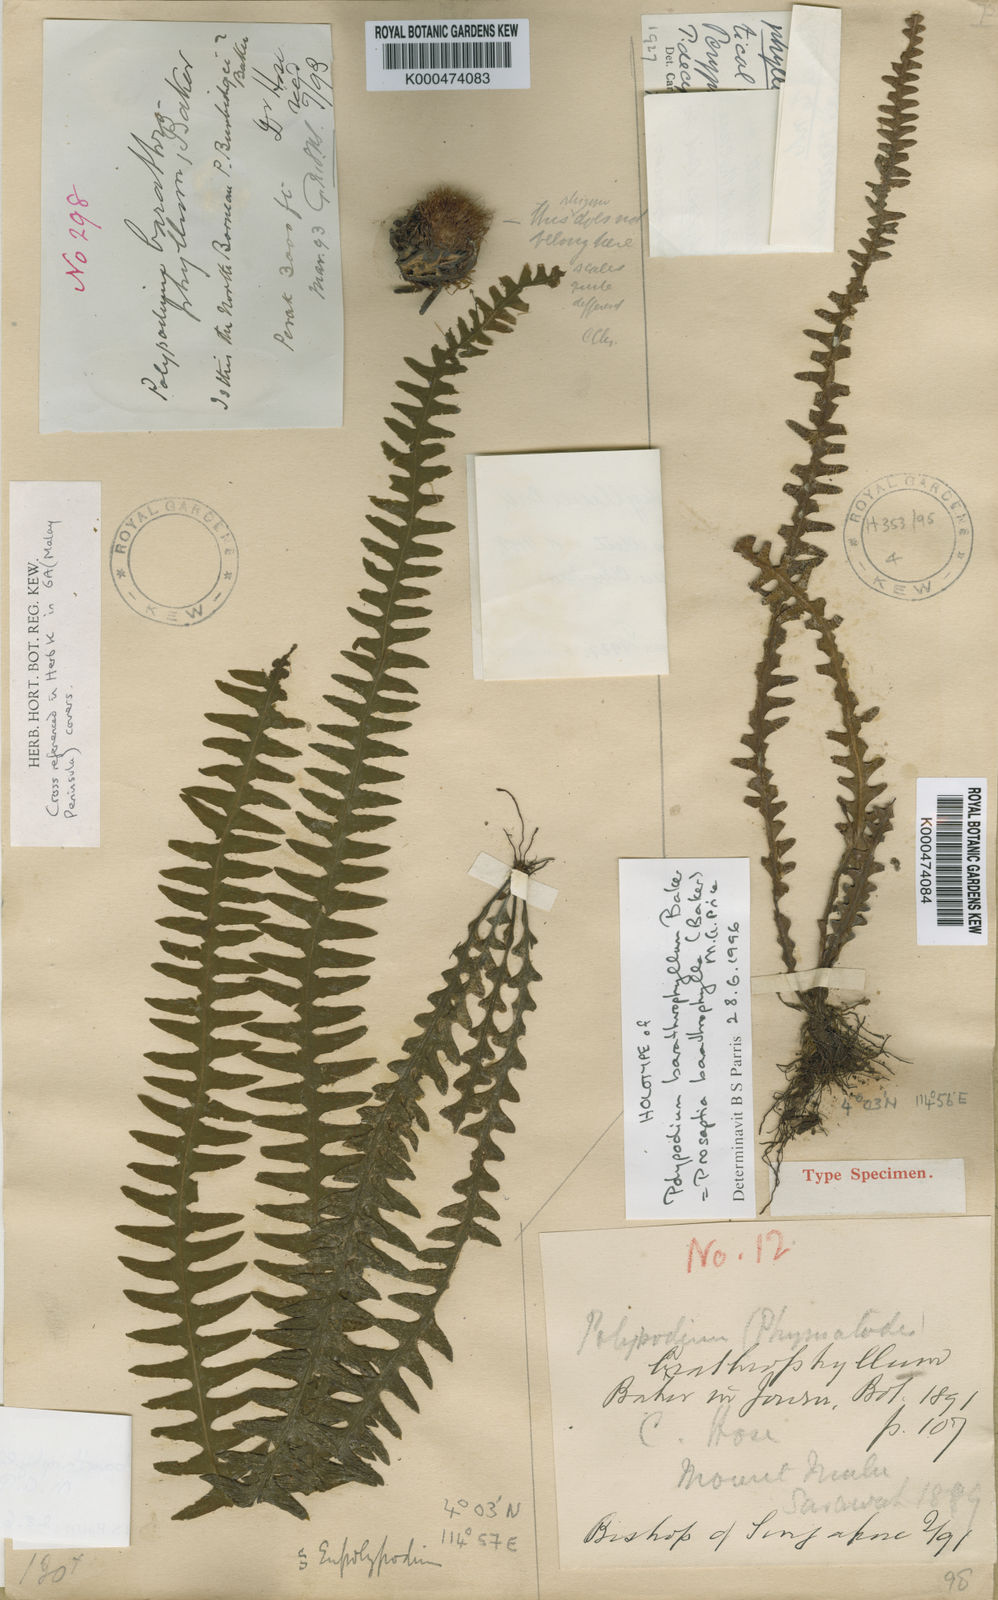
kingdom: Plantae
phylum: Tracheophyta
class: Polypodiopsida
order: Polypodiales
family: Polypodiaceae
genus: Prosaptia
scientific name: Prosaptia barathrophylla
